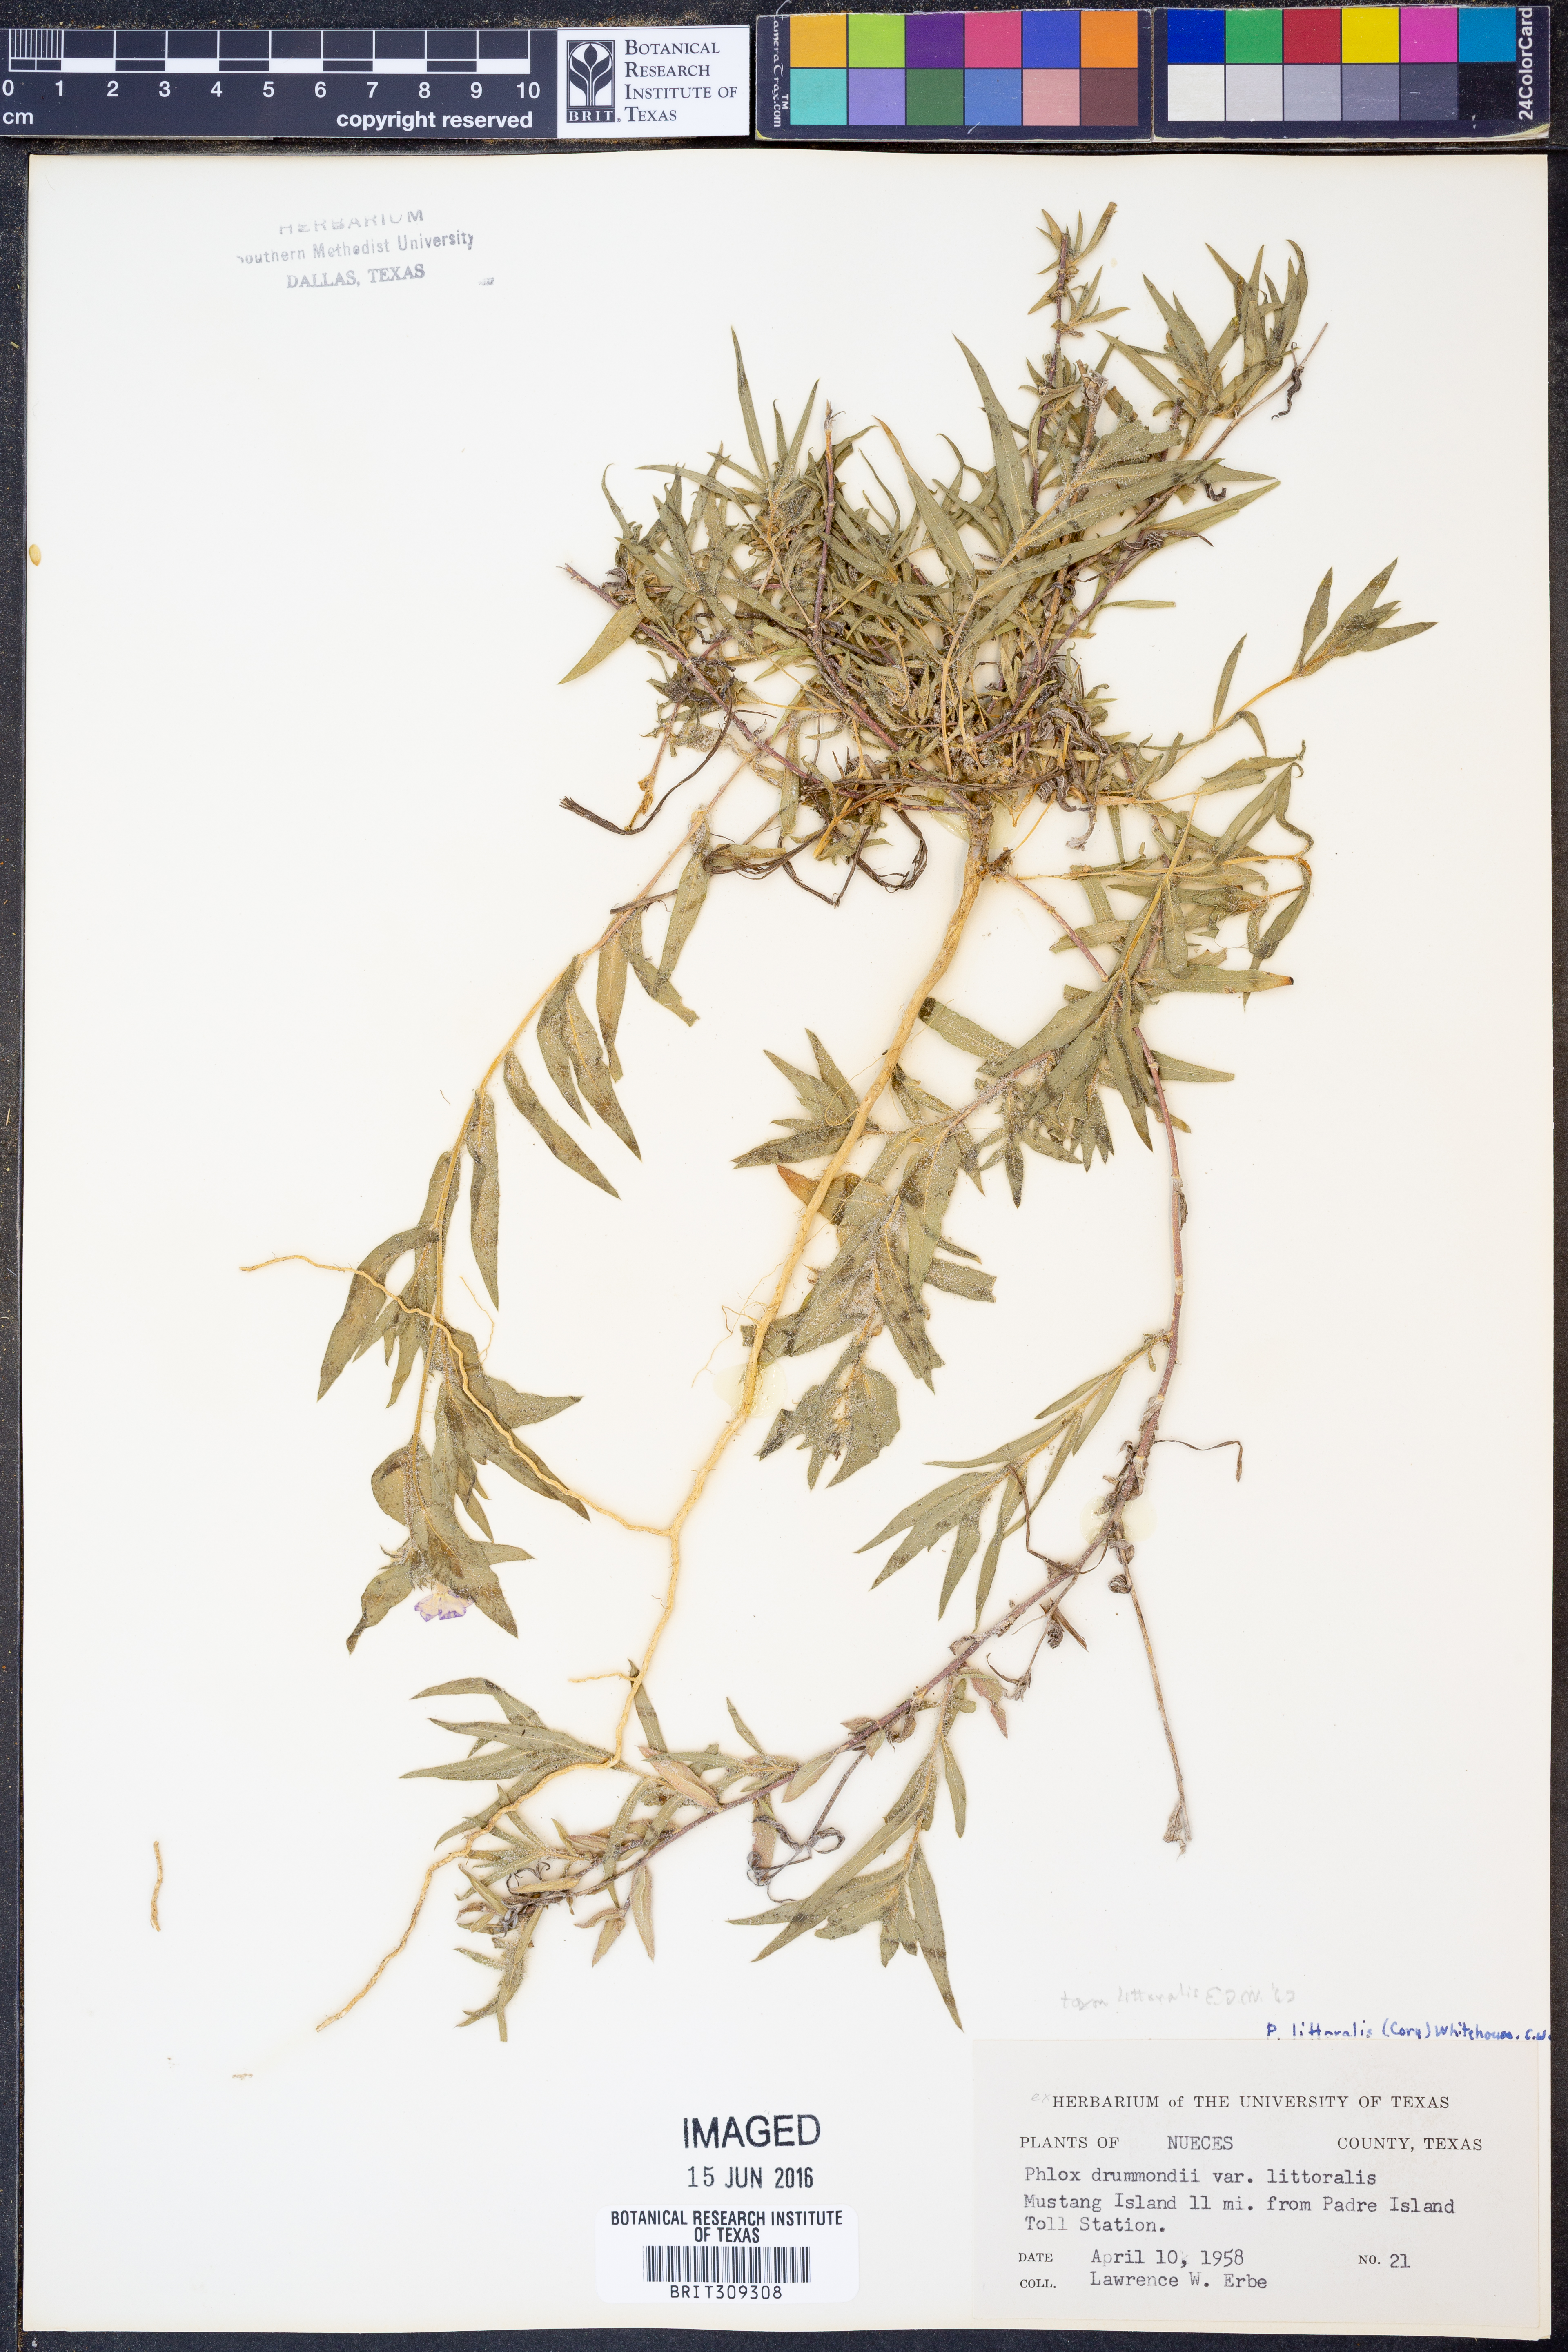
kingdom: Plantae
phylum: Tracheophyta
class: Magnoliopsida
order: Ericales
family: Polemoniaceae
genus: Phlox
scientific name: Phlox glabriflora
